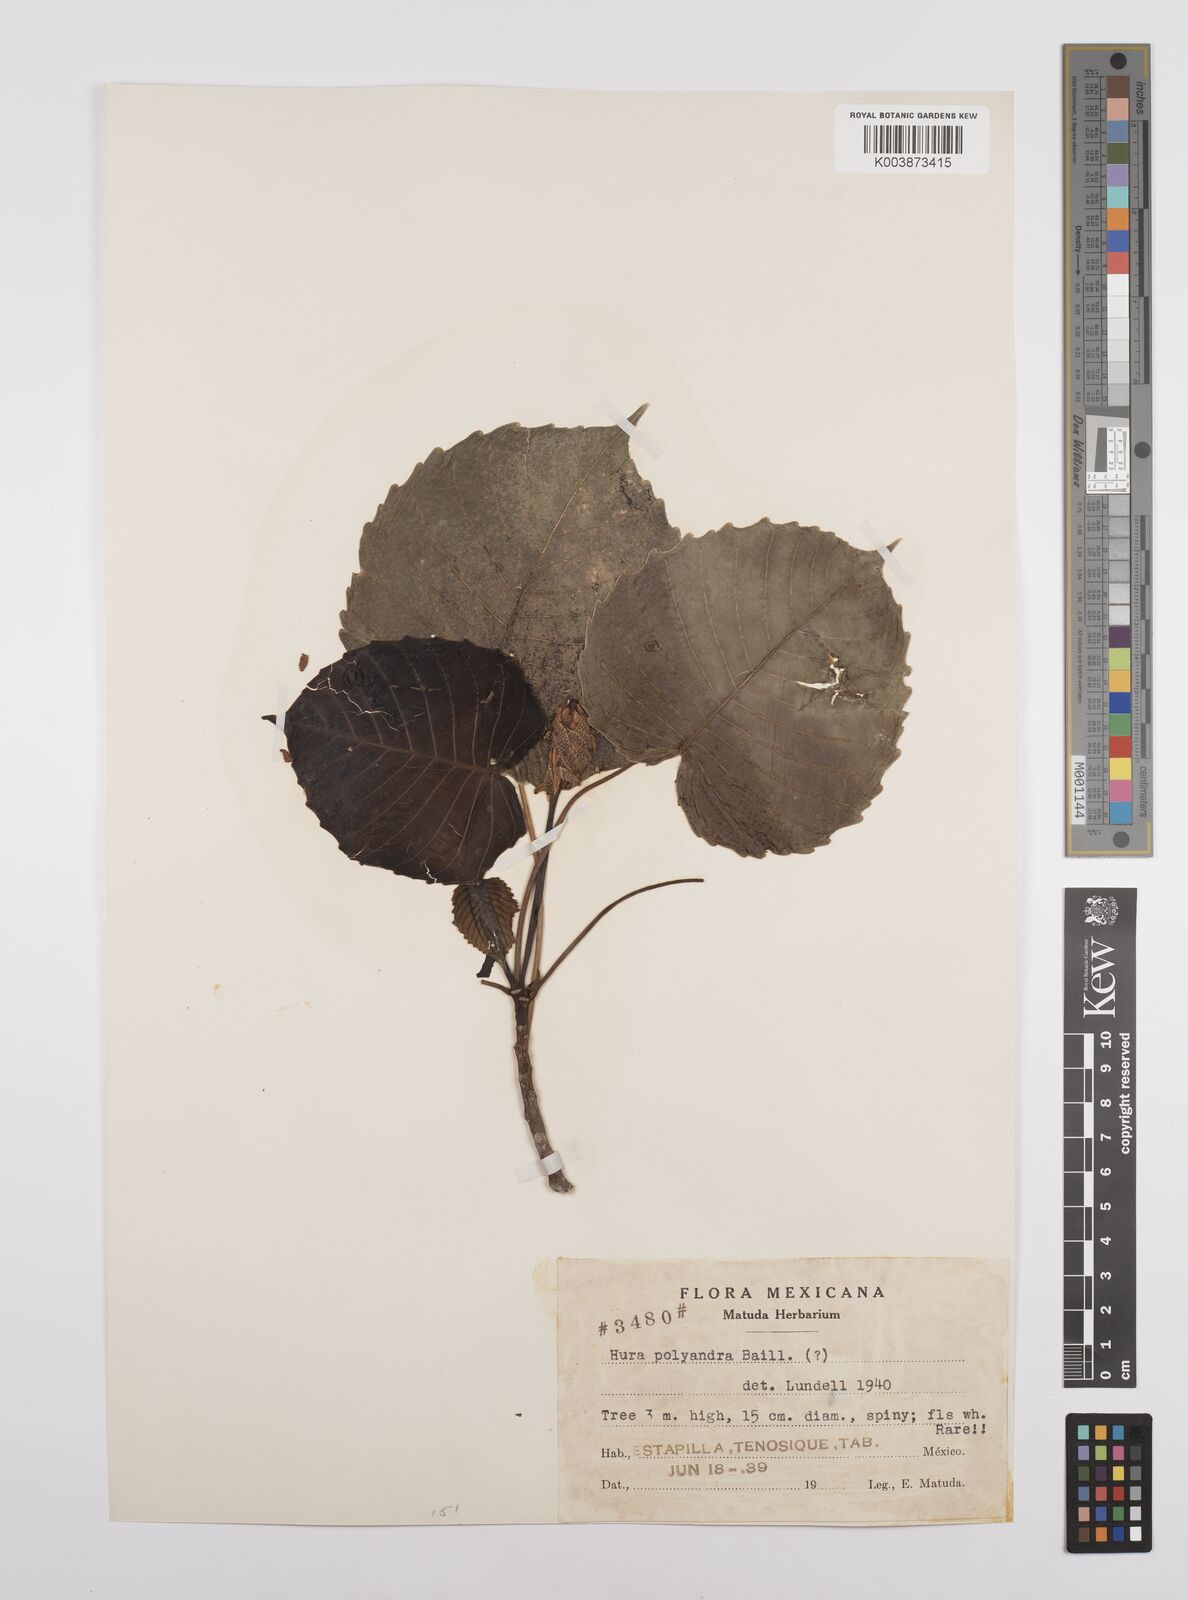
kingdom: Plantae
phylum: Tracheophyta
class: Magnoliopsida
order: Malpighiales
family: Euphorbiaceae
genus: Hura
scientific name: Hura polyandra
